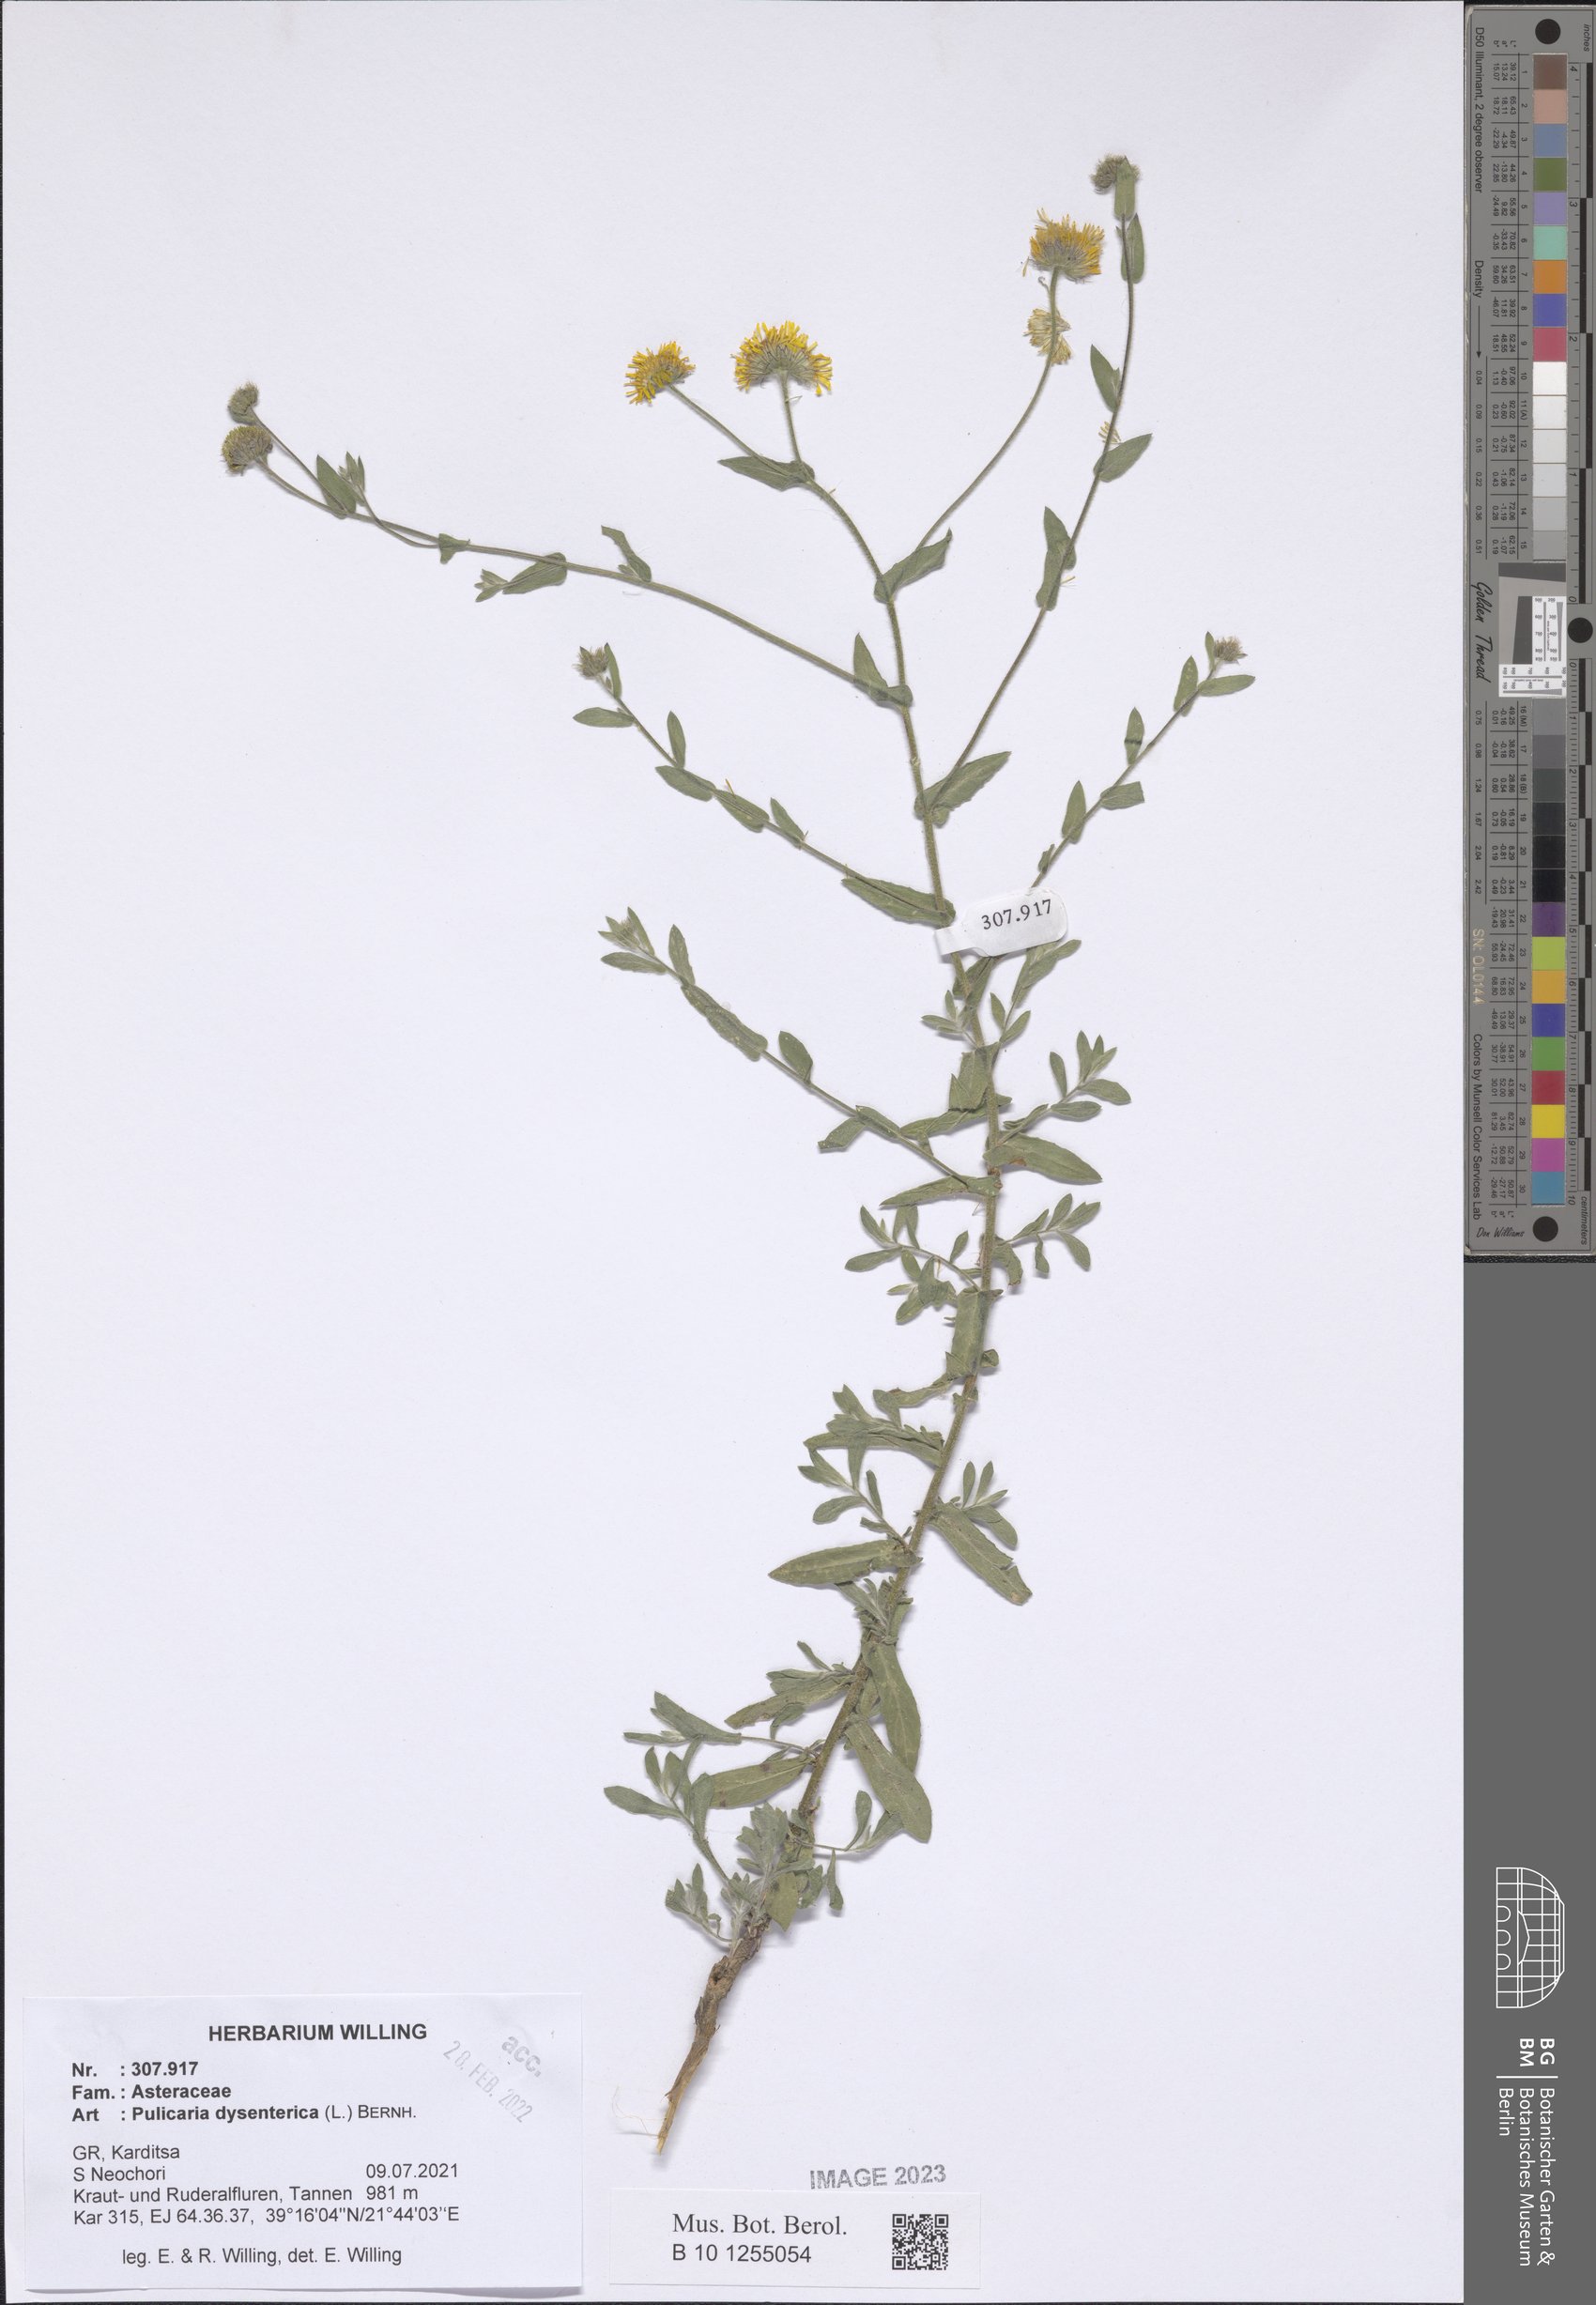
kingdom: Plantae
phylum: Tracheophyta
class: Magnoliopsida
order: Asterales
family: Asteraceae
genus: Pulicaria
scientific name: Pulicaria dysenterica
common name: Common fleabane
